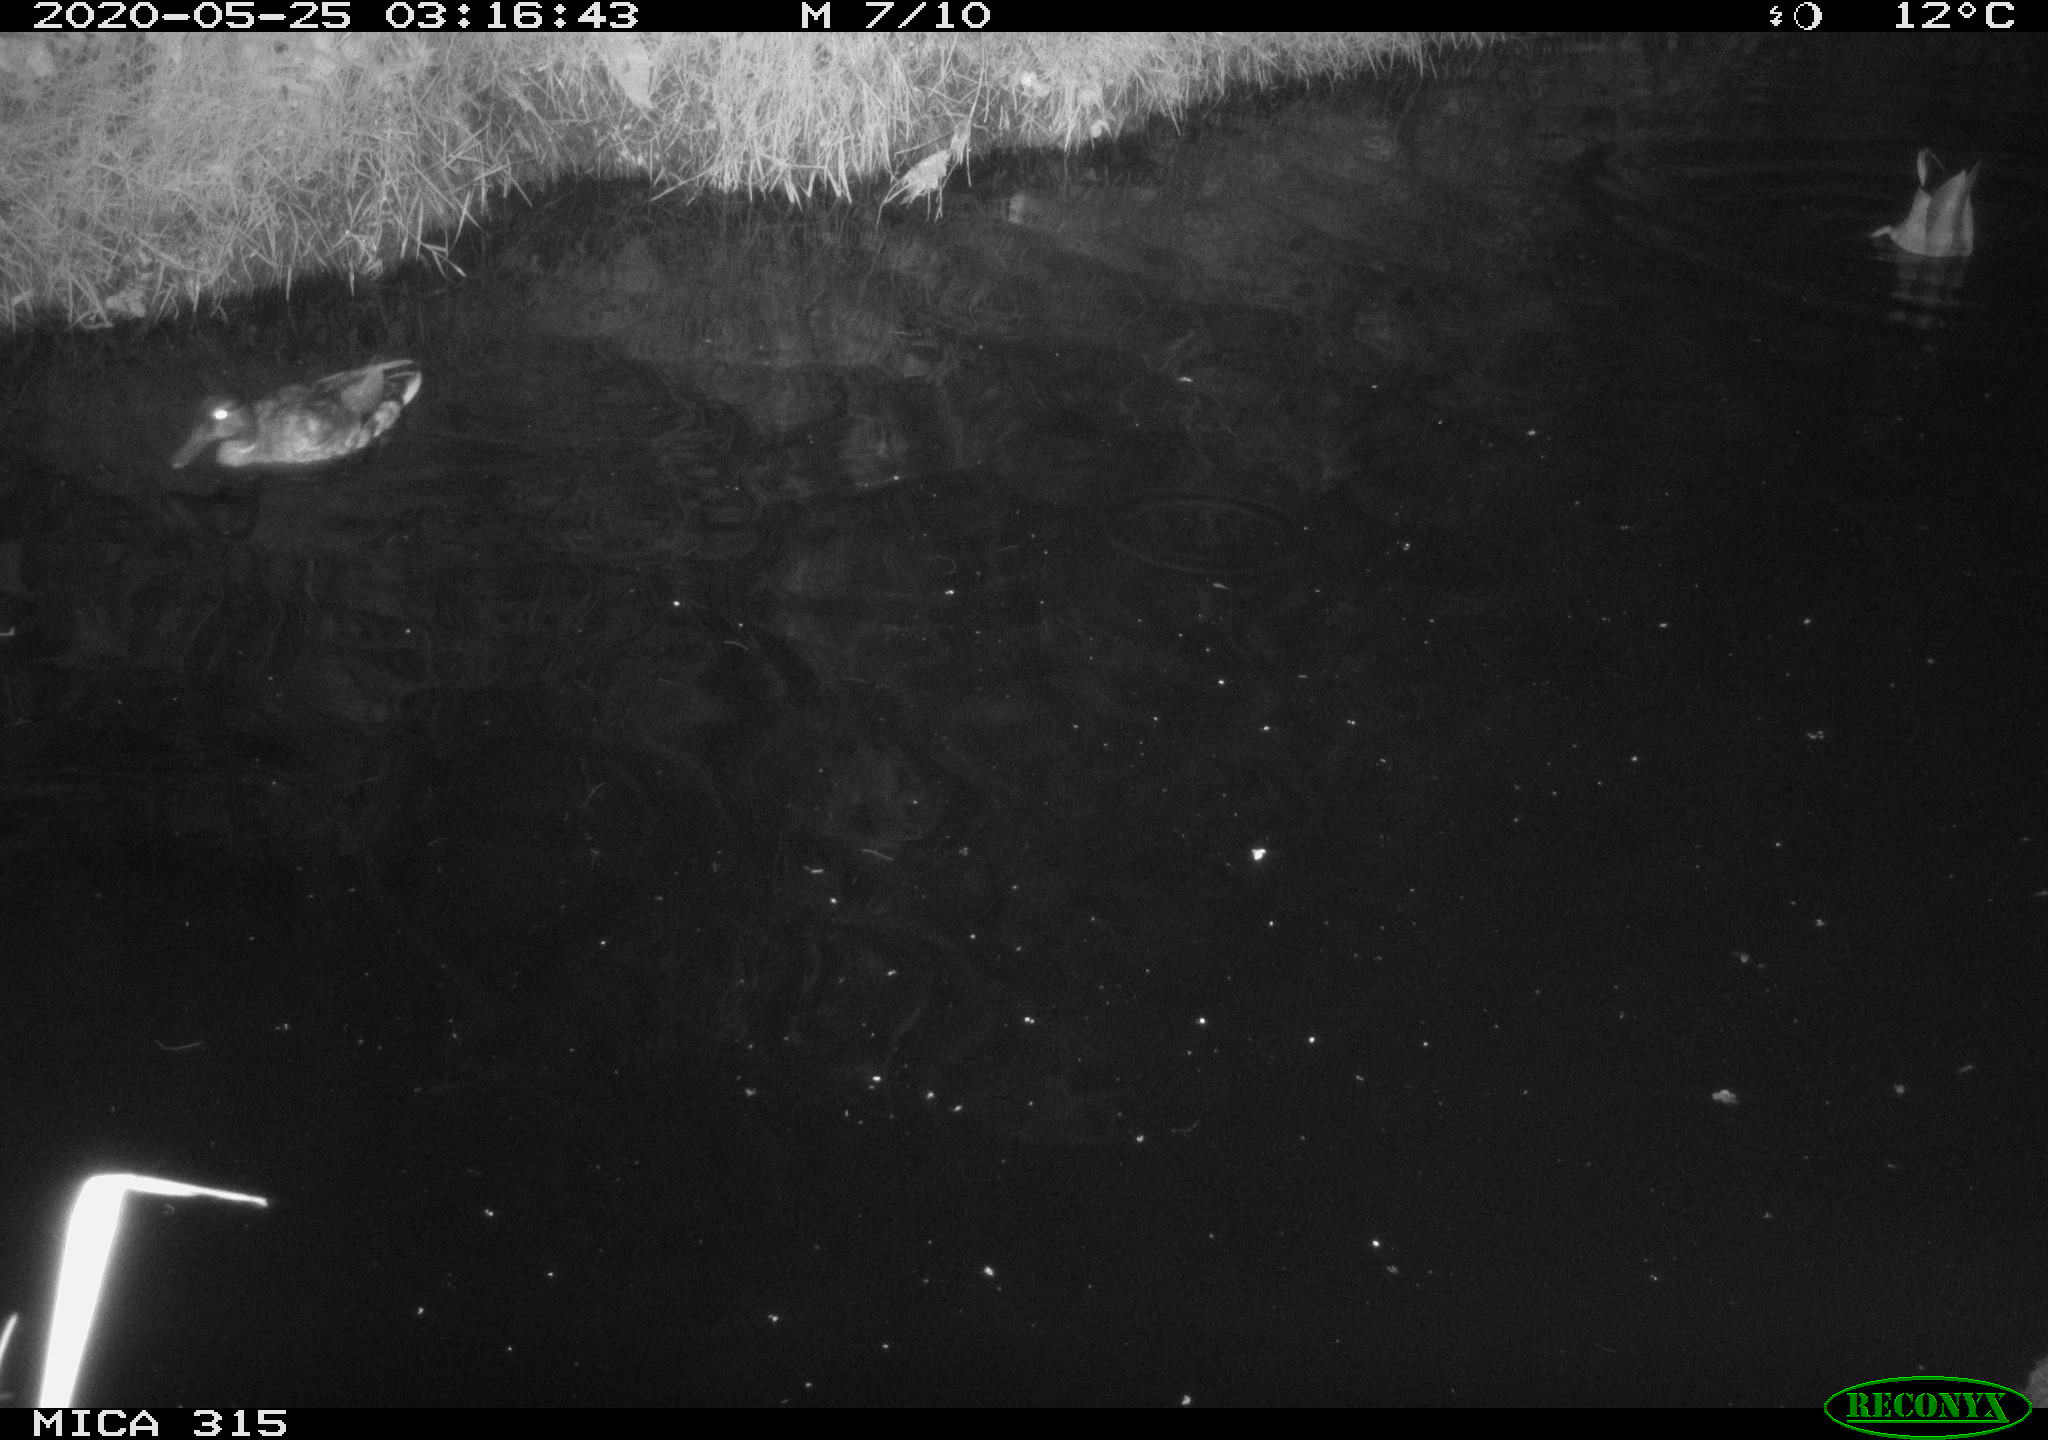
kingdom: Animalia
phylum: Chordata
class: Aves
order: Anseriformes
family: Anatidae
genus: Anas
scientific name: Anas platyrhynchos
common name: Mallard
